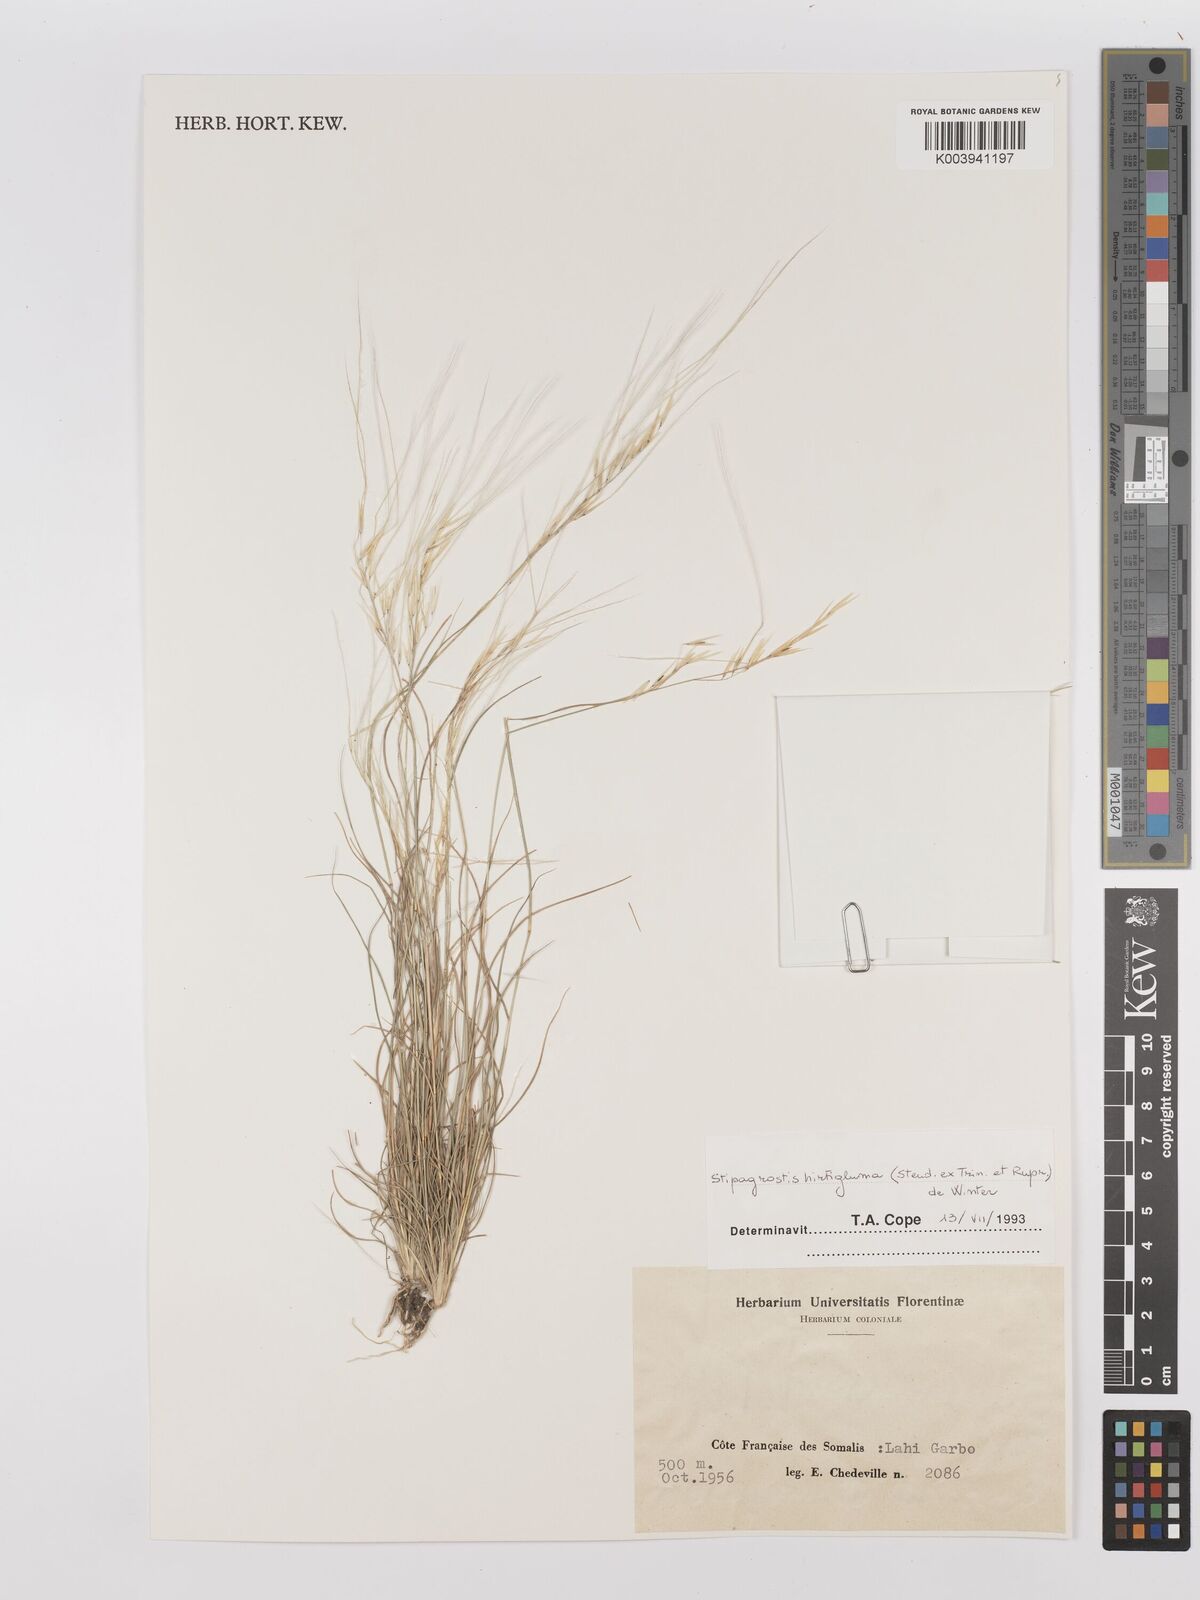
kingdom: Plantae
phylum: Tracheophyta
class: Liliopsida
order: Poales
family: Poaceae
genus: Stipagrostis
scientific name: Stipagrostis hirtigluma
